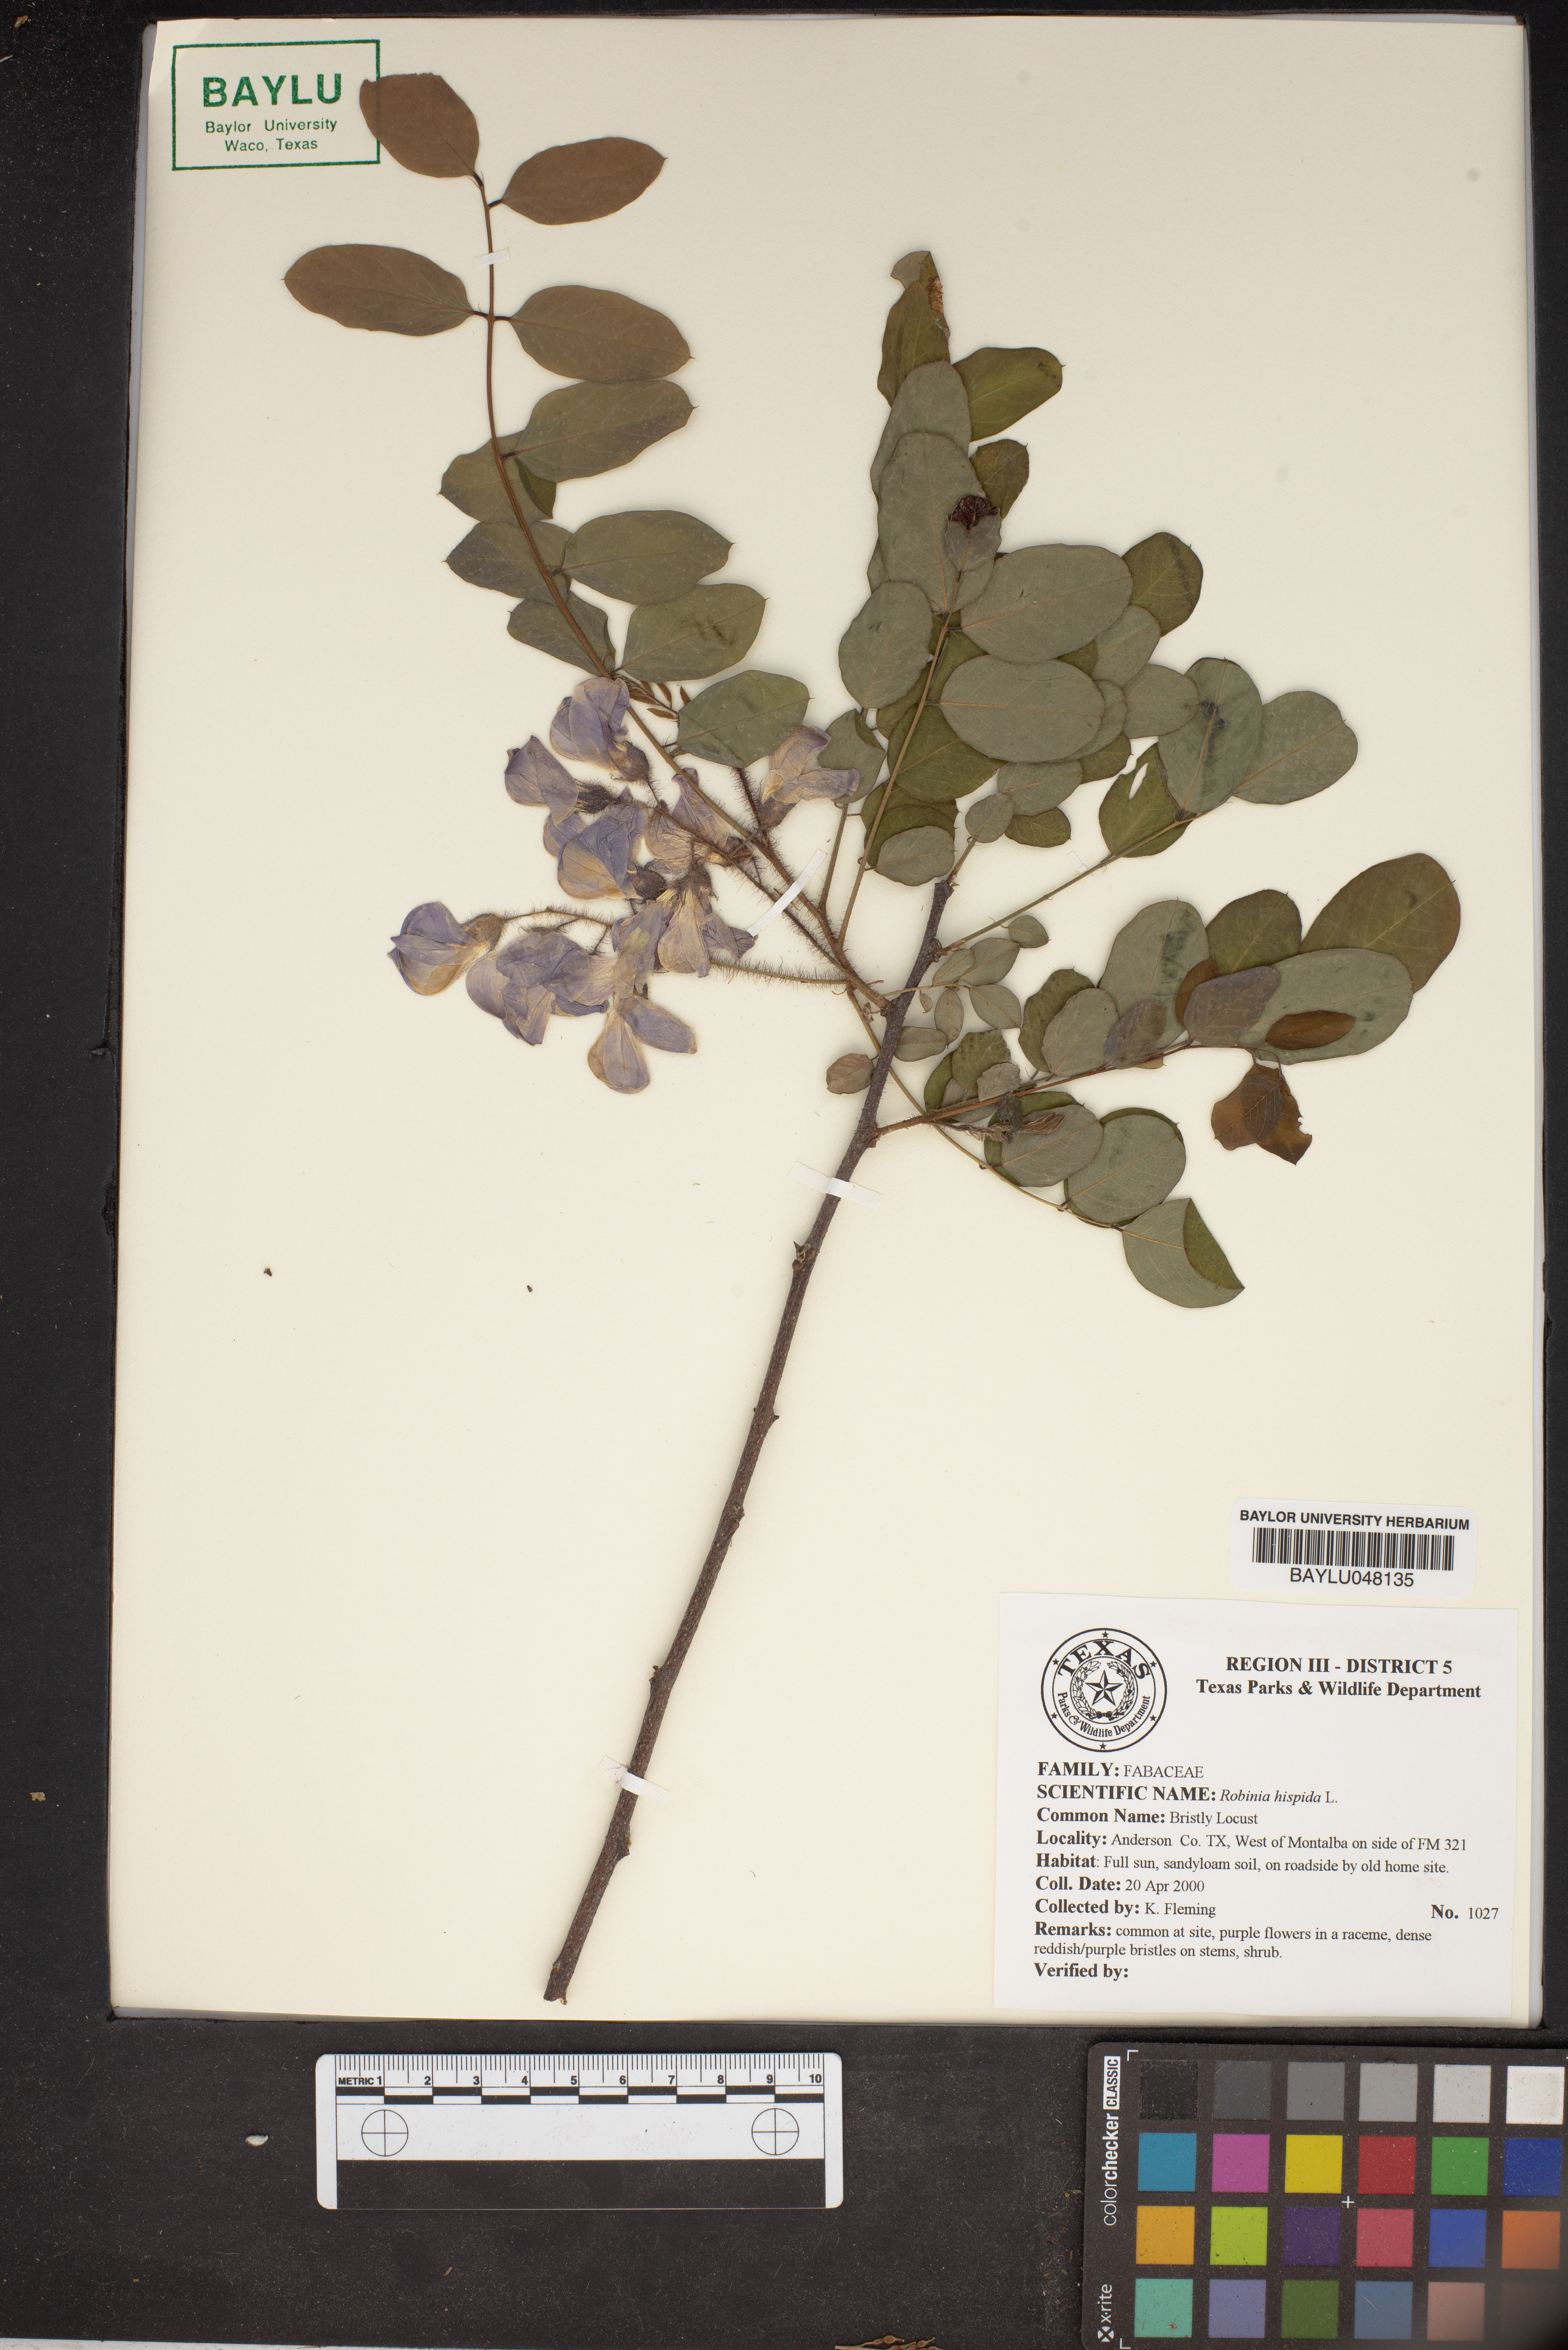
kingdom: Plantae
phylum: Tracheophyta
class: Magnoliopsida
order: Fabales
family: Fabaceae
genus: Robinia
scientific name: Robinia hispida
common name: Bristly locust
